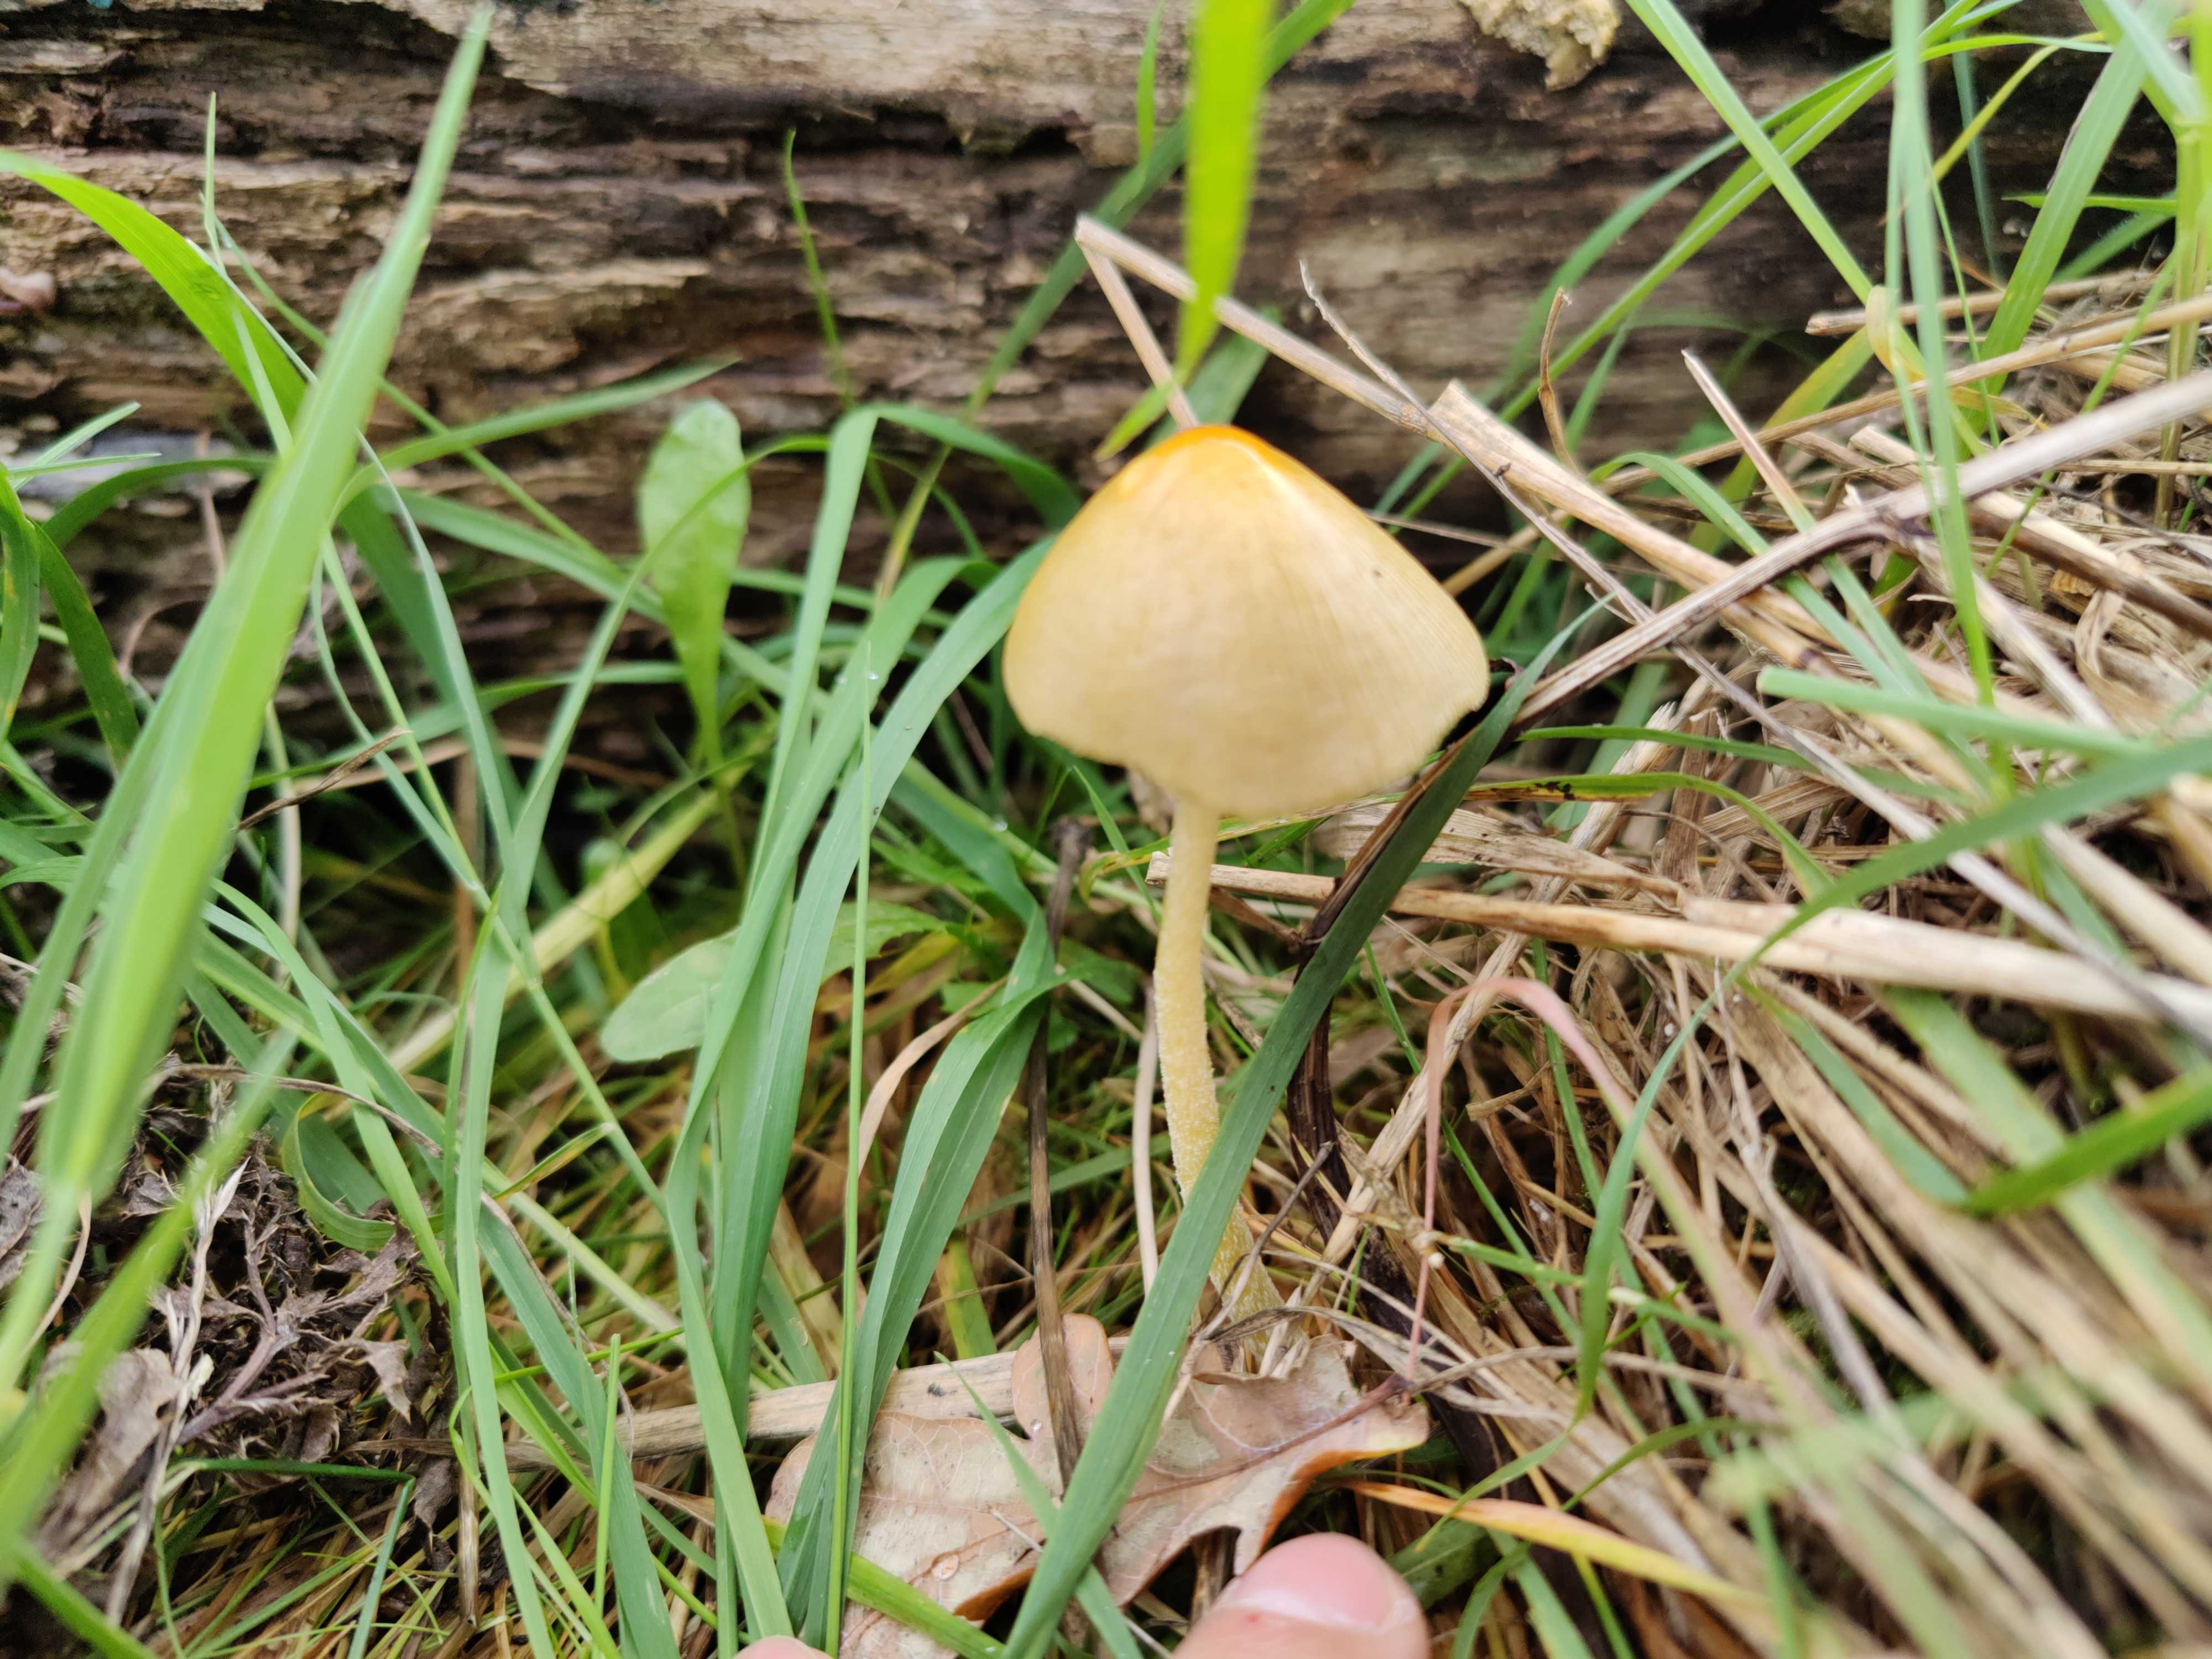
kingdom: Fungi
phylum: Basidiomycota
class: Agaricomycetes
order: Agaricales
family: Bolbitiaceae
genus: Bolbitius
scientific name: Bolbitius titubans
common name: almindelig gulhat
